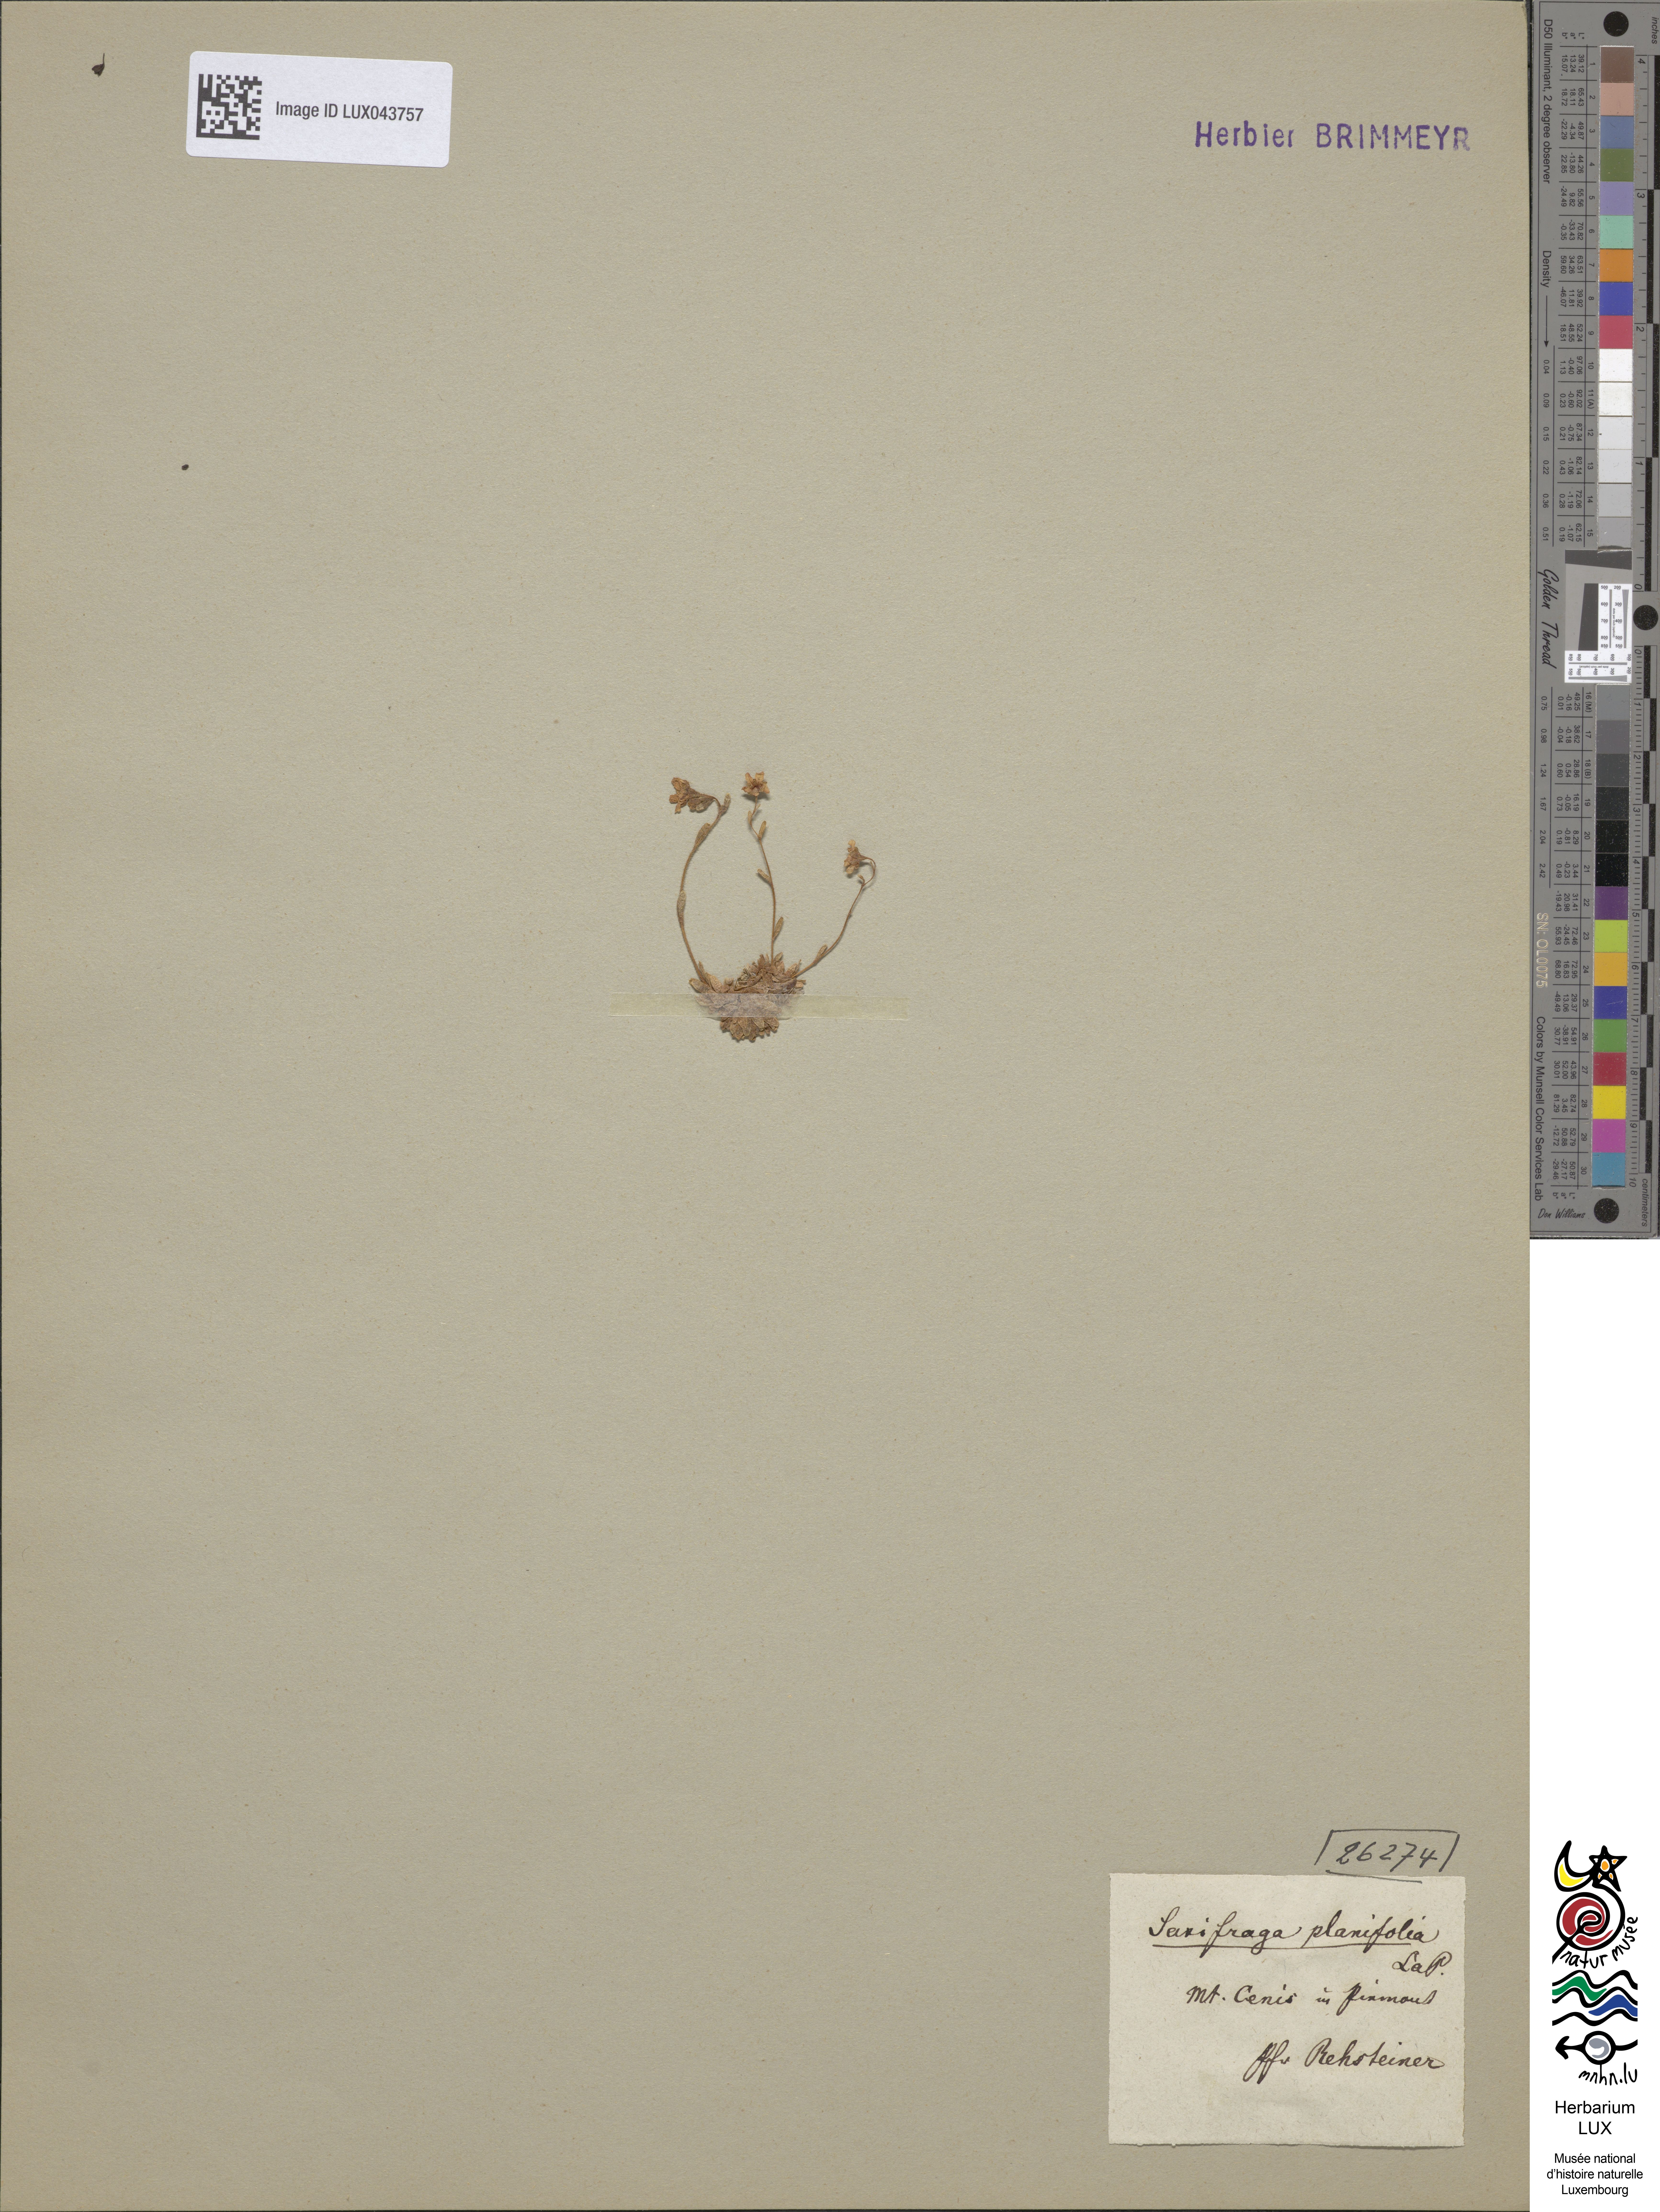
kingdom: Plantae
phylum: Tracheophyta
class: Magnoliopsida
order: Saxifragales
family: Saxifragaceae
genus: Saxifraga
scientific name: Saxifraga moschata
